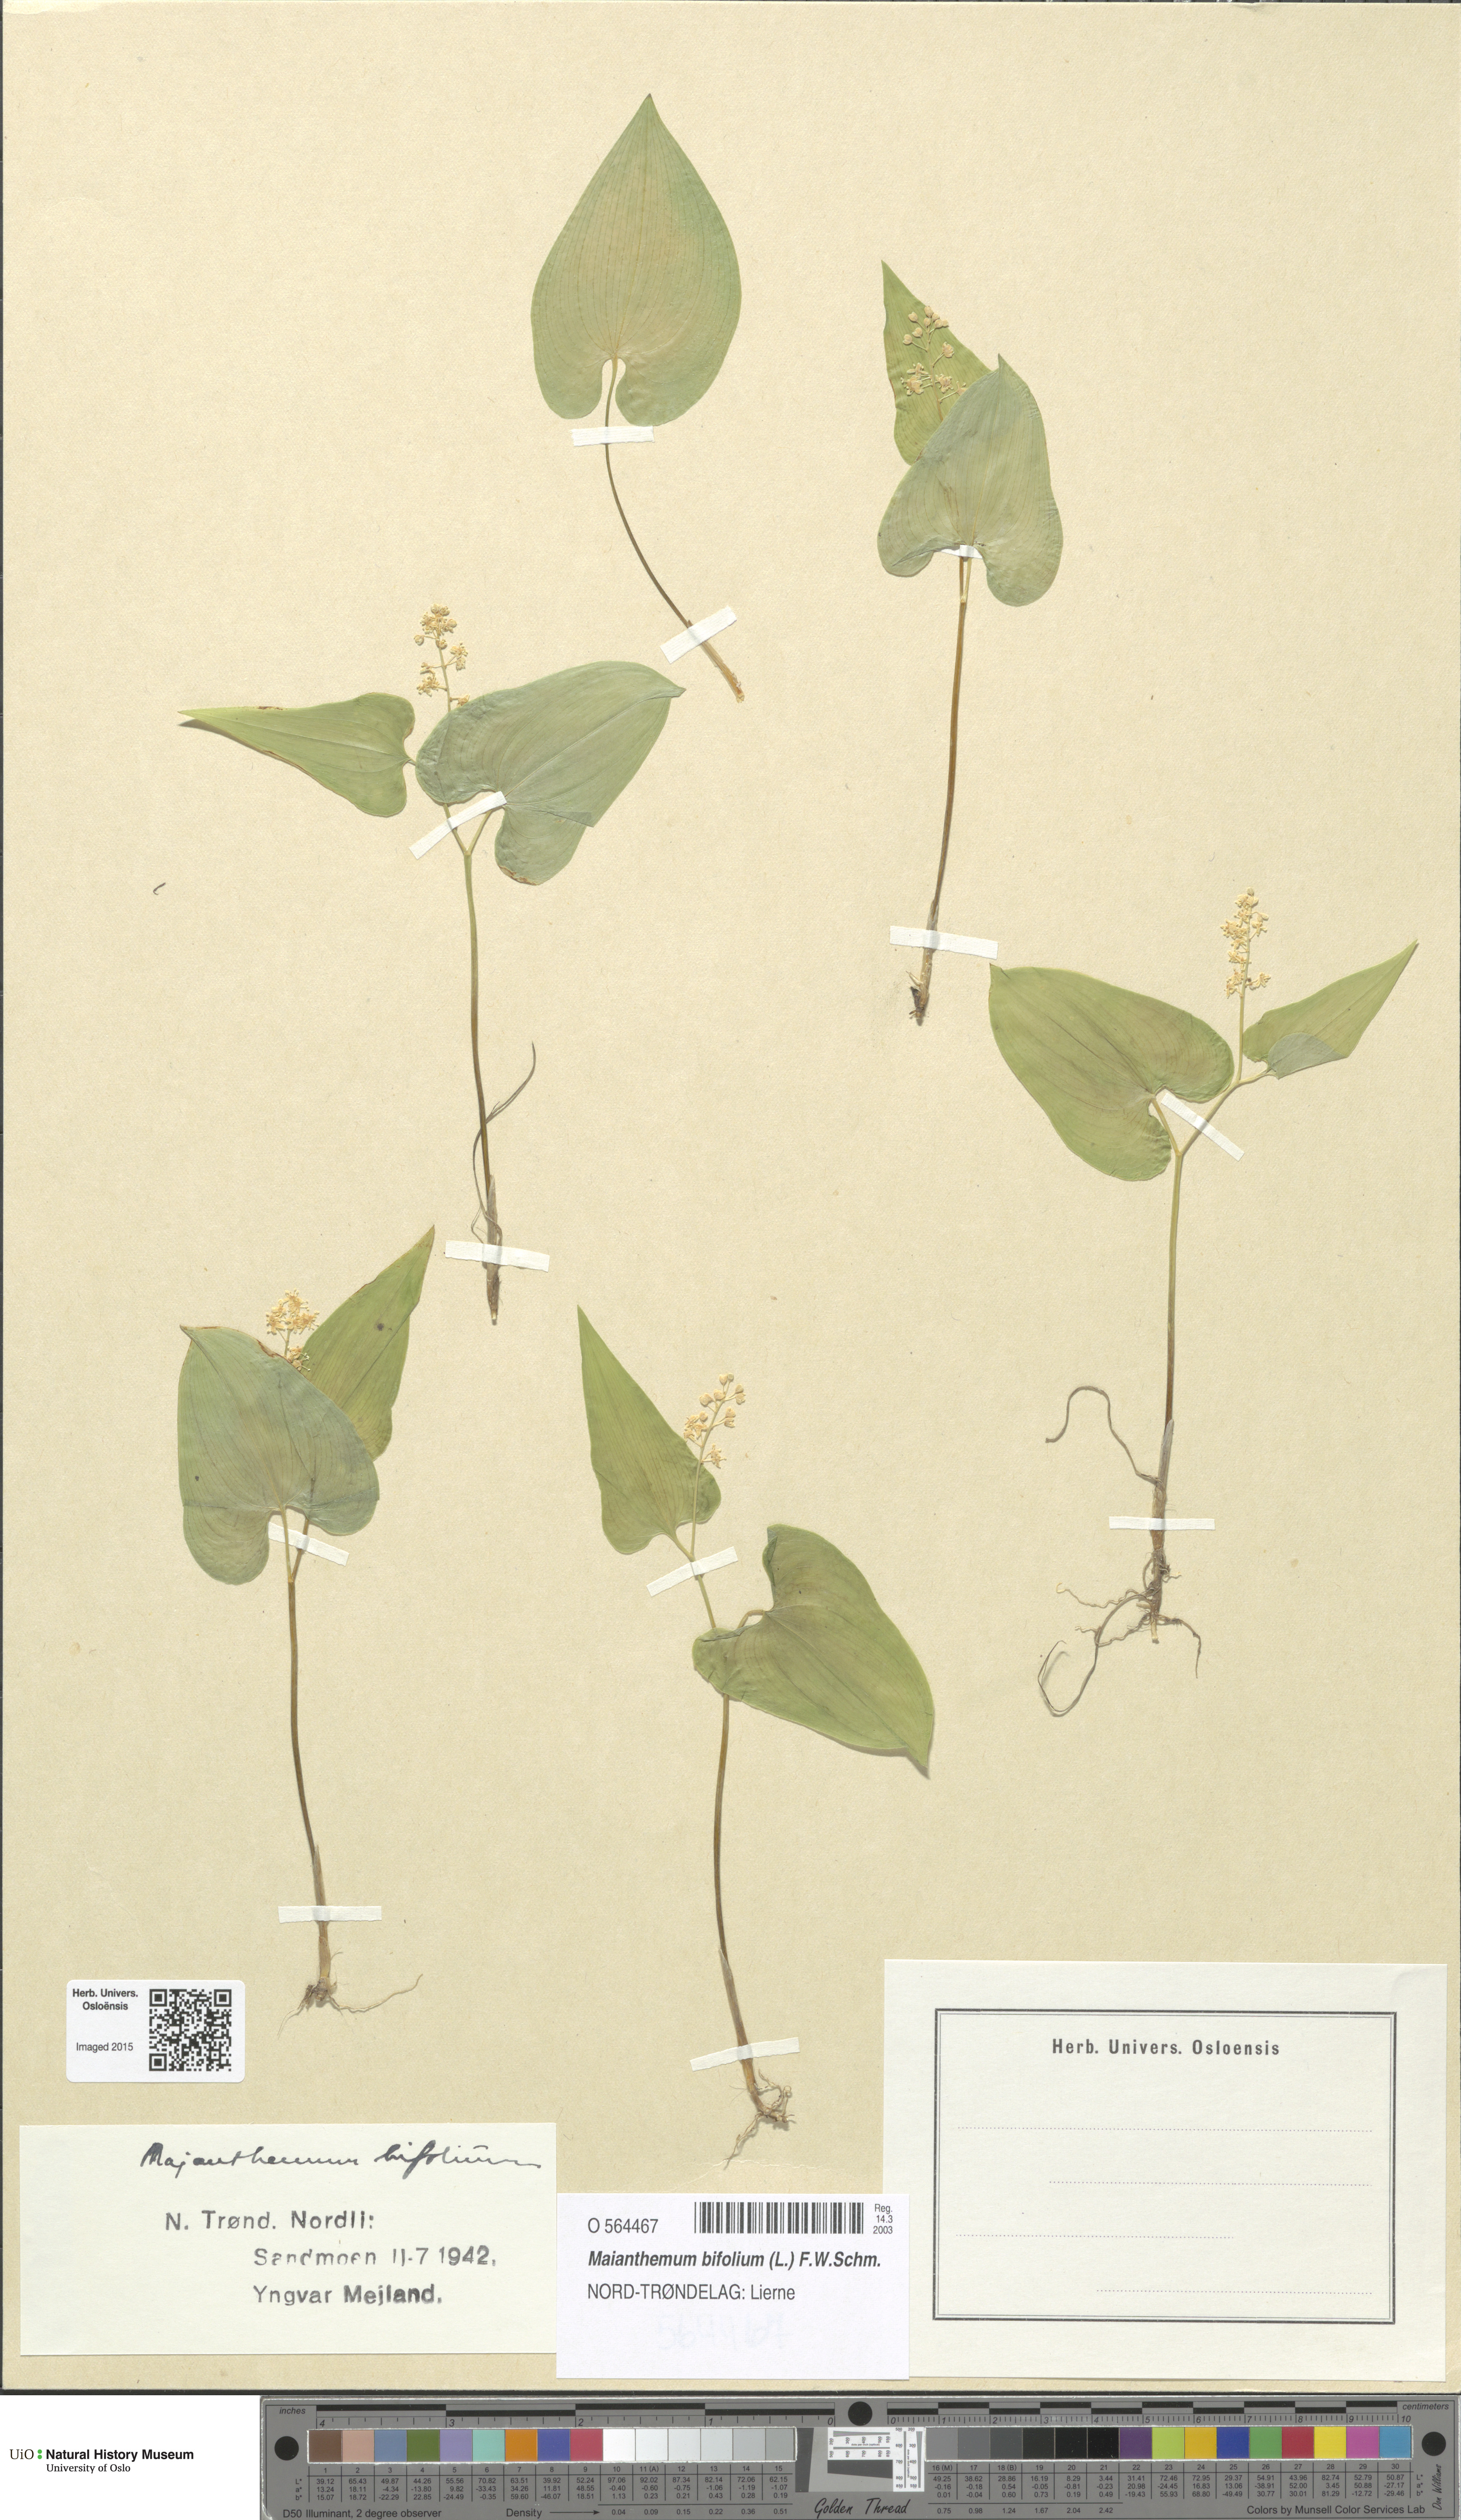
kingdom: Plantae
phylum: Tracheophyta
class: Liliopsida
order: Asparagales
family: Asparagaceae
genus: Maianthemum
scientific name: Maianthemum bifolium
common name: May lily
